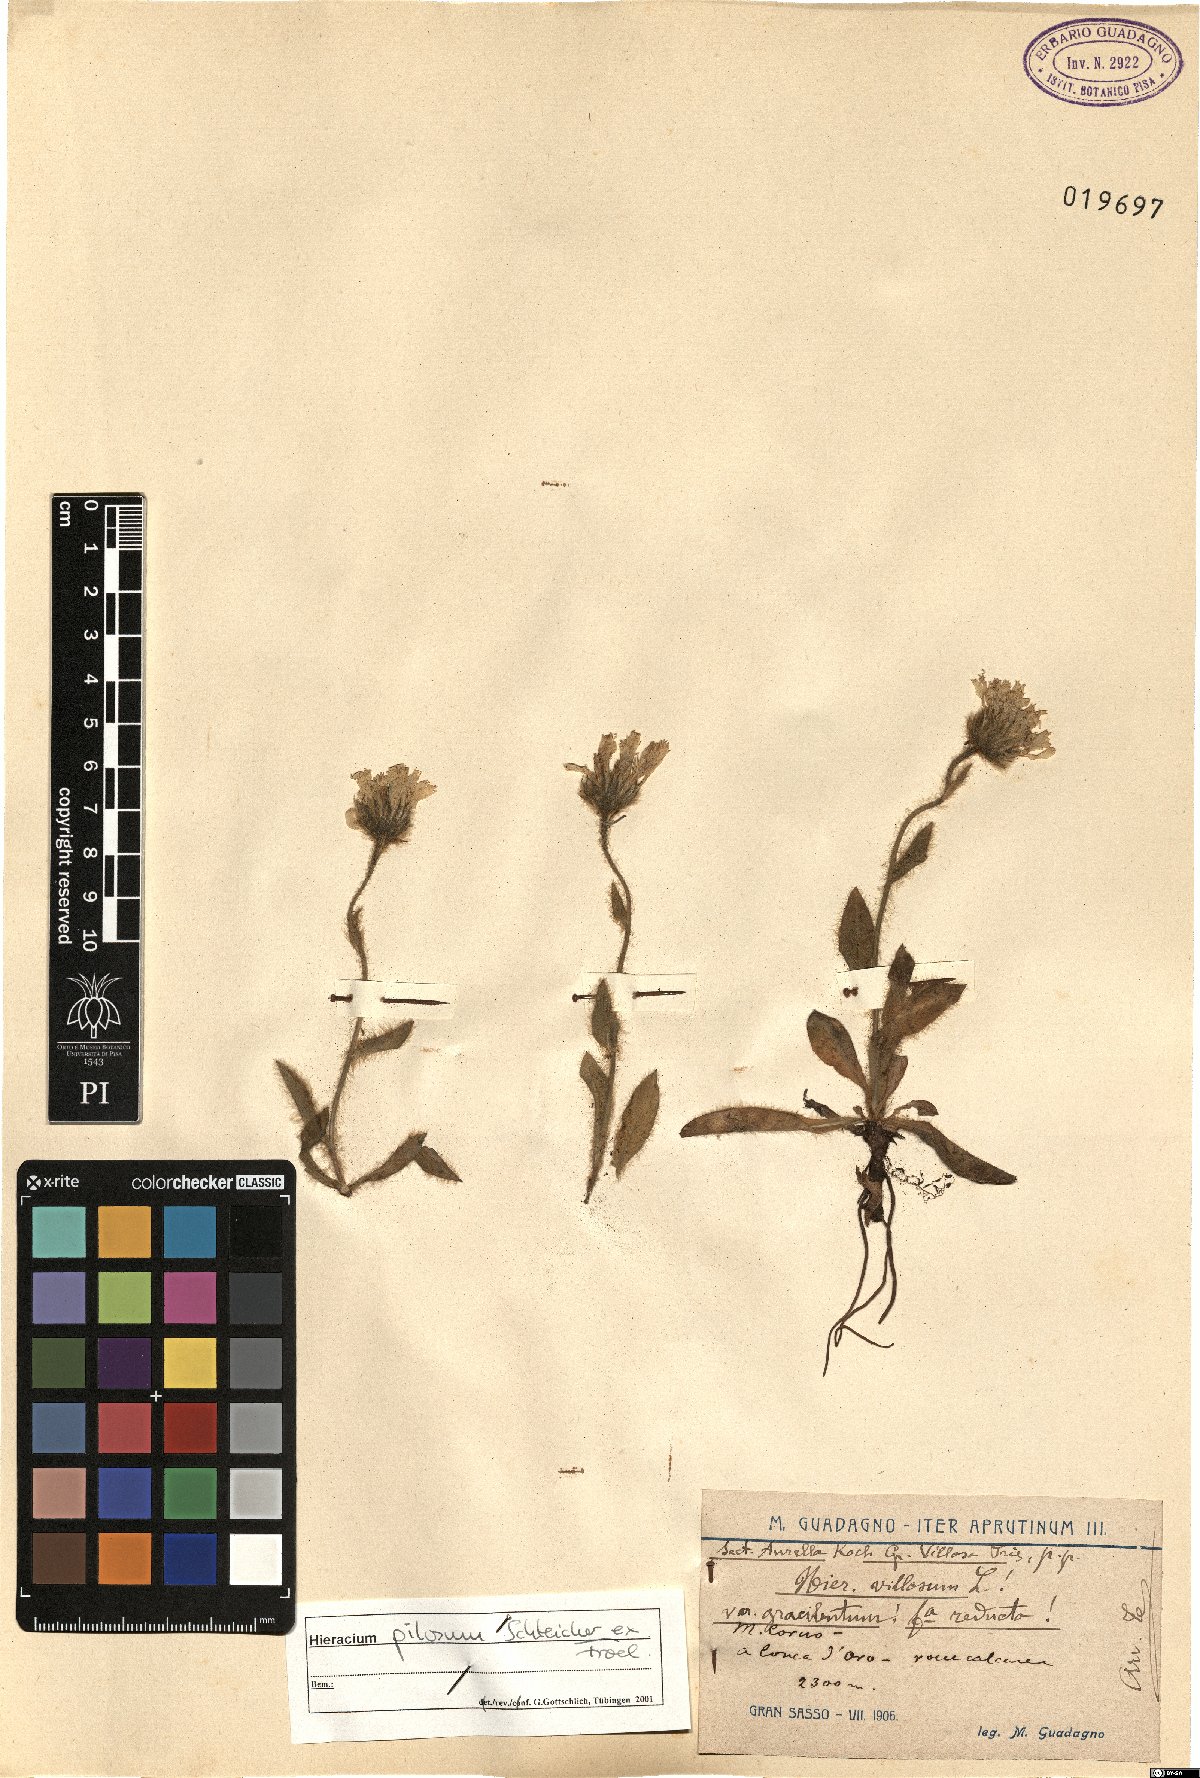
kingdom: Plantae
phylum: Tracheophyta
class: Magnoliopsida
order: Asterales
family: Asteraceae
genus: Hieracium
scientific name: Hieracium pilosum
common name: Fimbriate-pitted hawkweed
